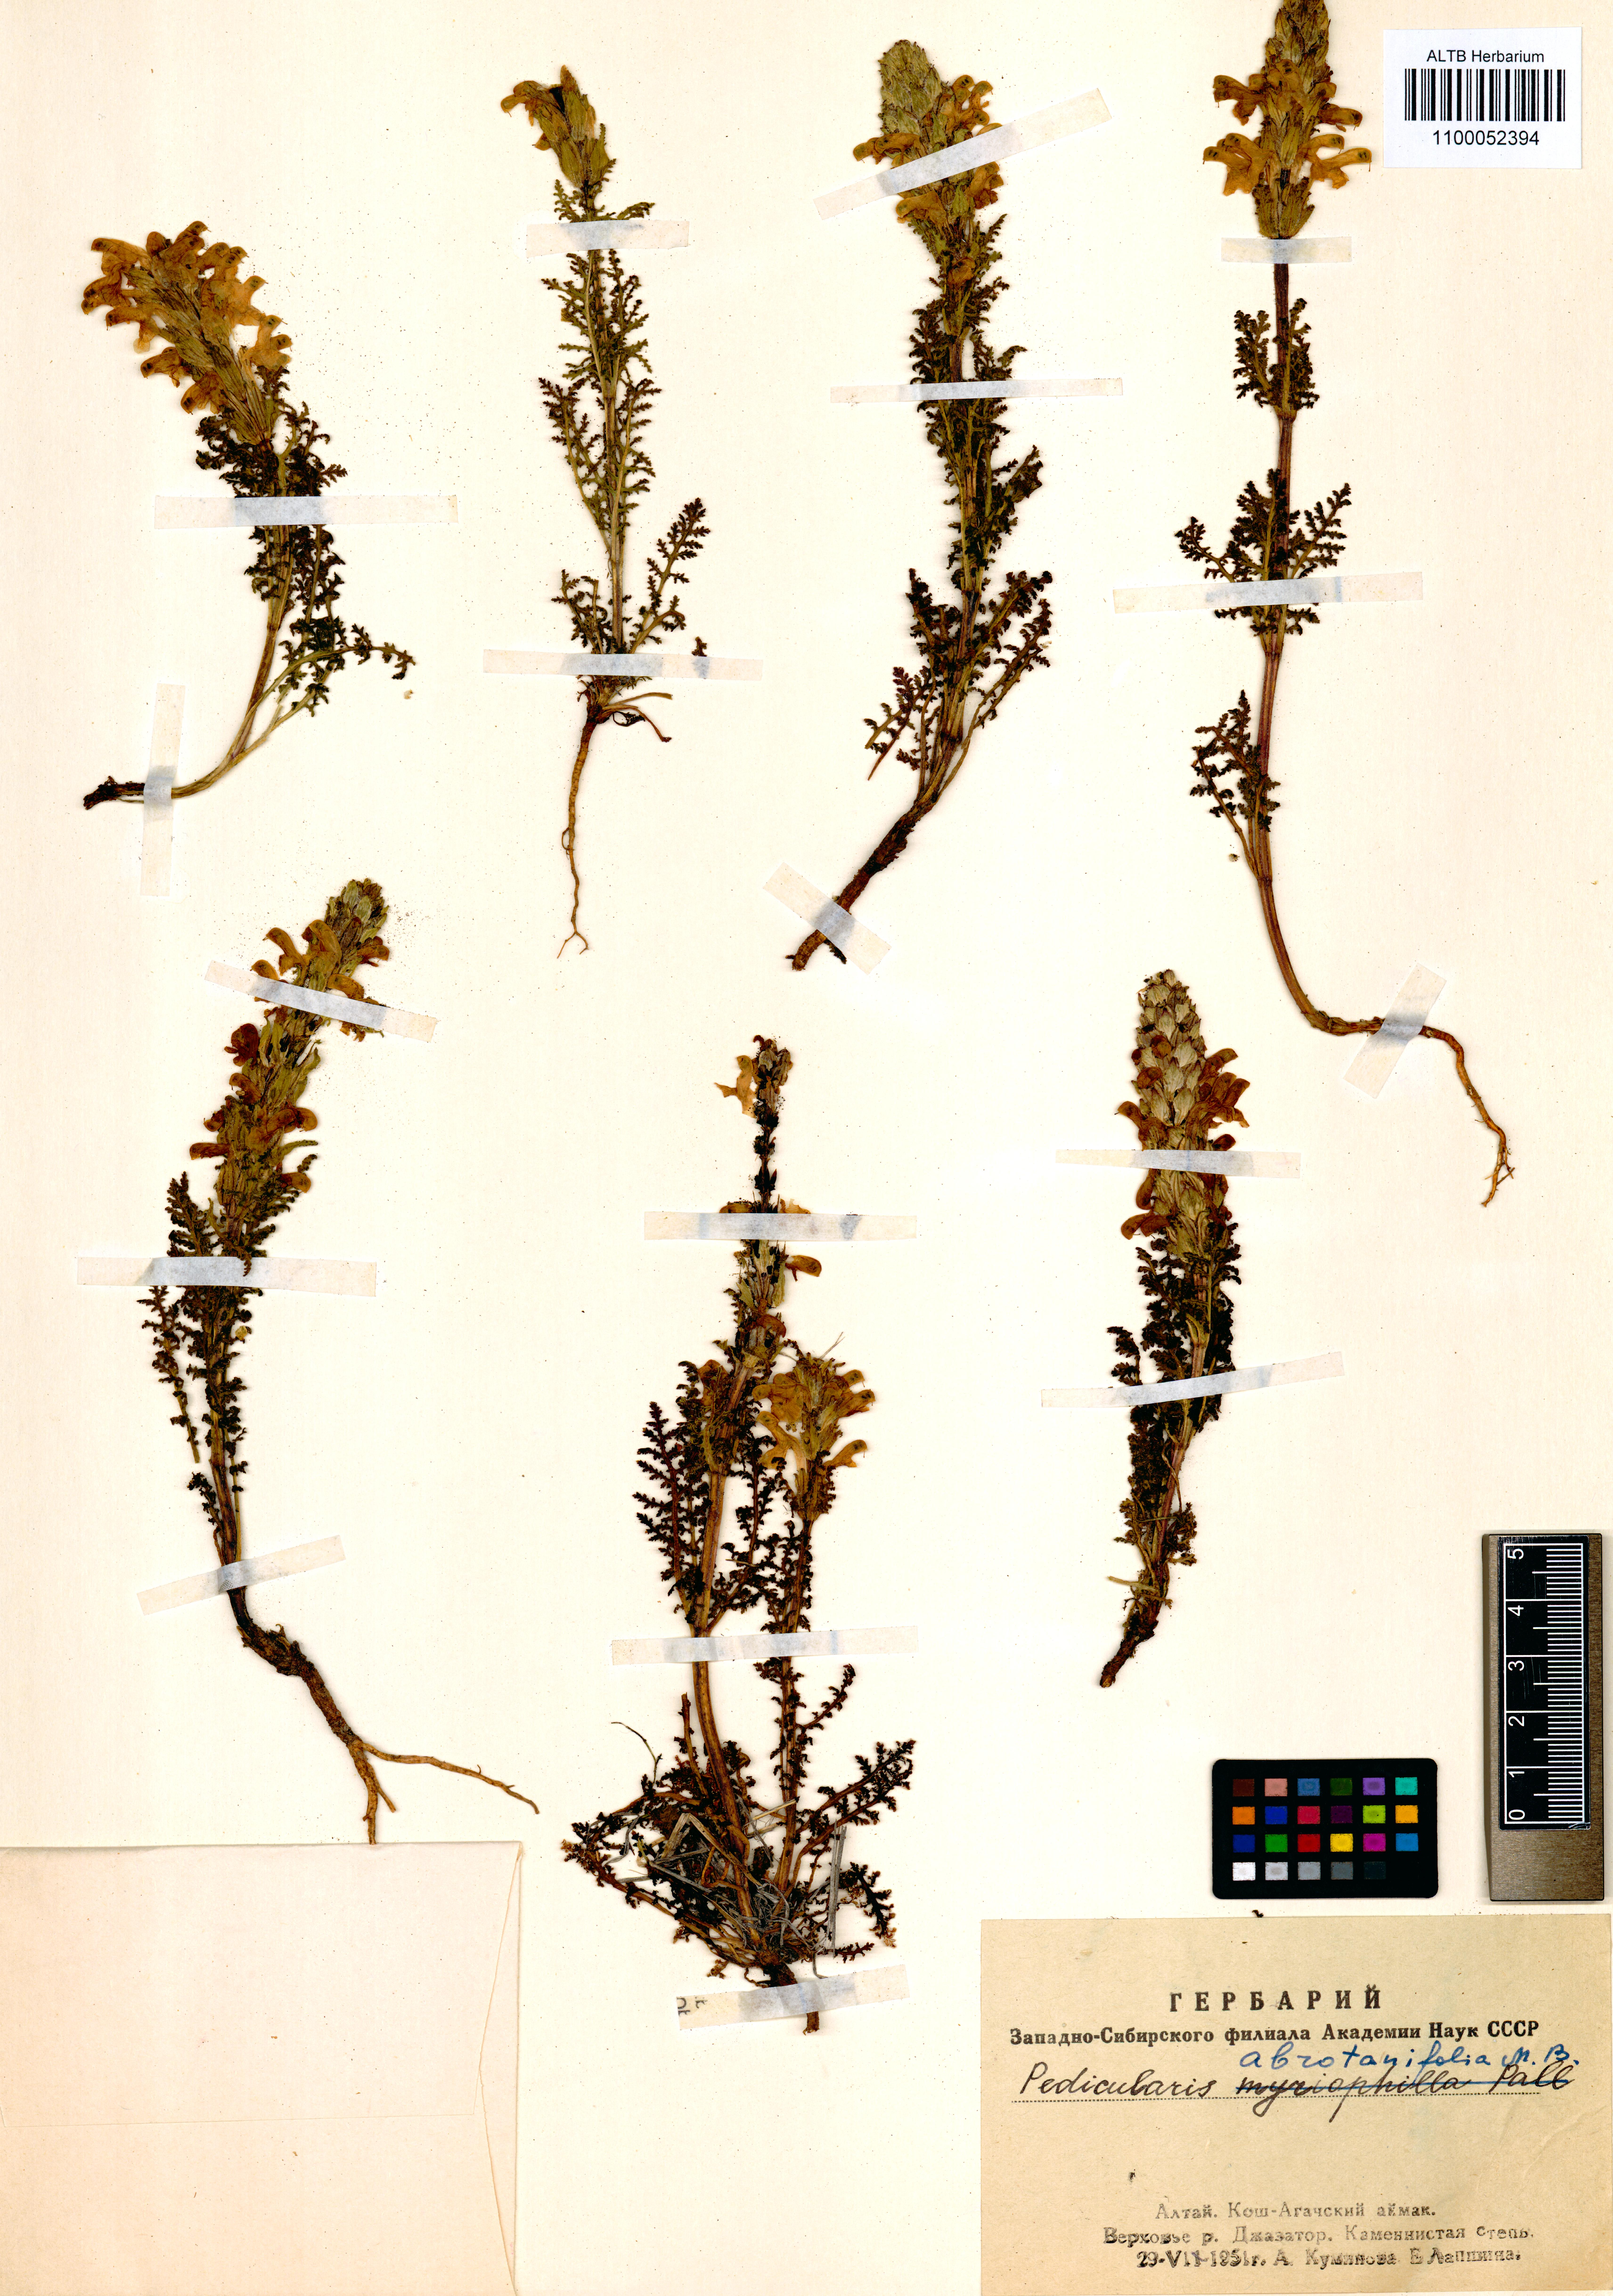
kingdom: Plantae
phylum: Tracheophyta
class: Magnoliopsida
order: Lamiales
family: Orobanchaceae
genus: Pedicularis
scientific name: Pedicularis abrotanifolia
